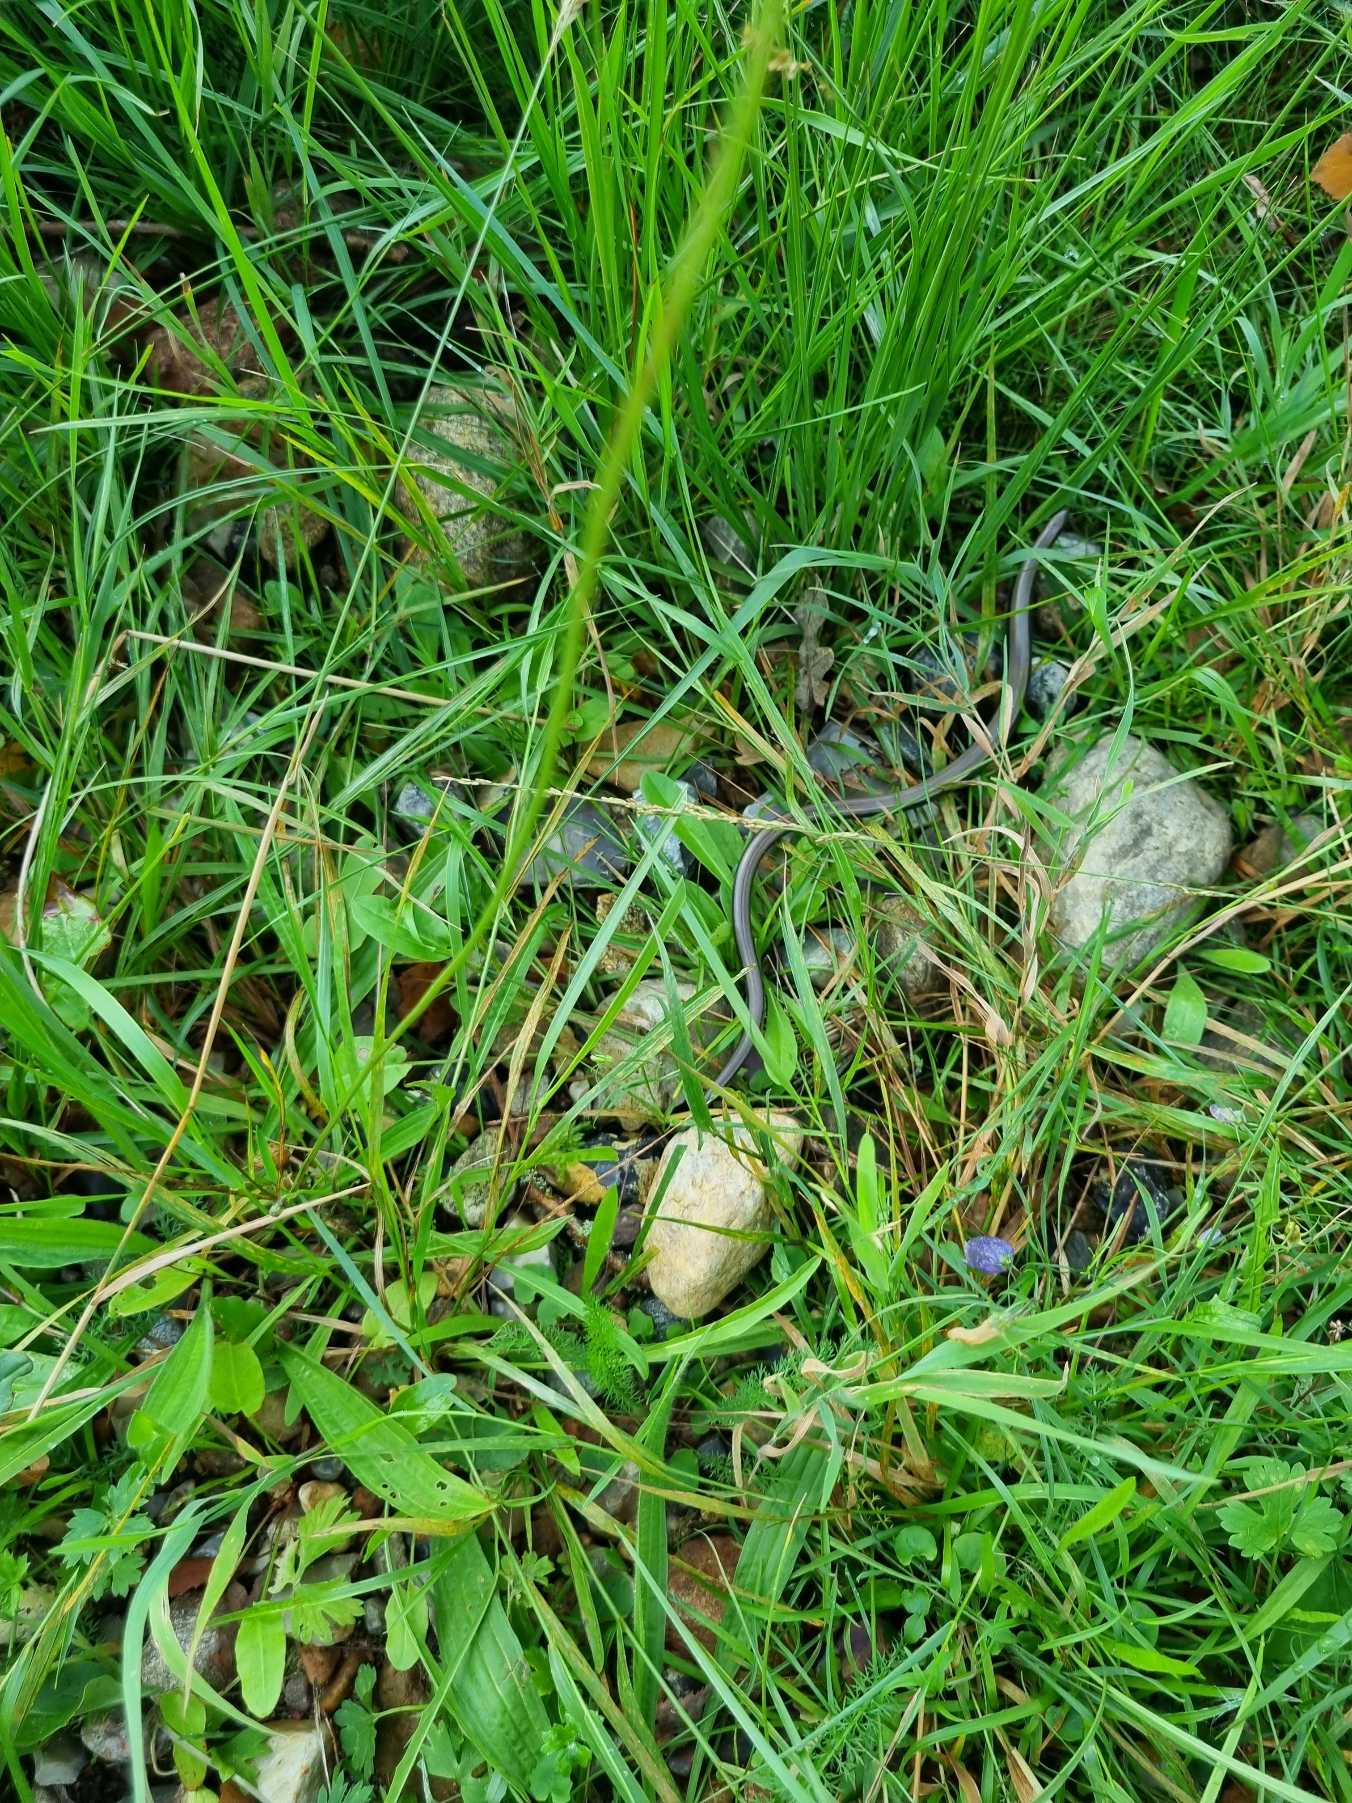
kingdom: Animalia
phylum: Chordata
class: Squamata
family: Anguidae
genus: Anguis
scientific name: Anguis fragilis
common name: Stålorm
